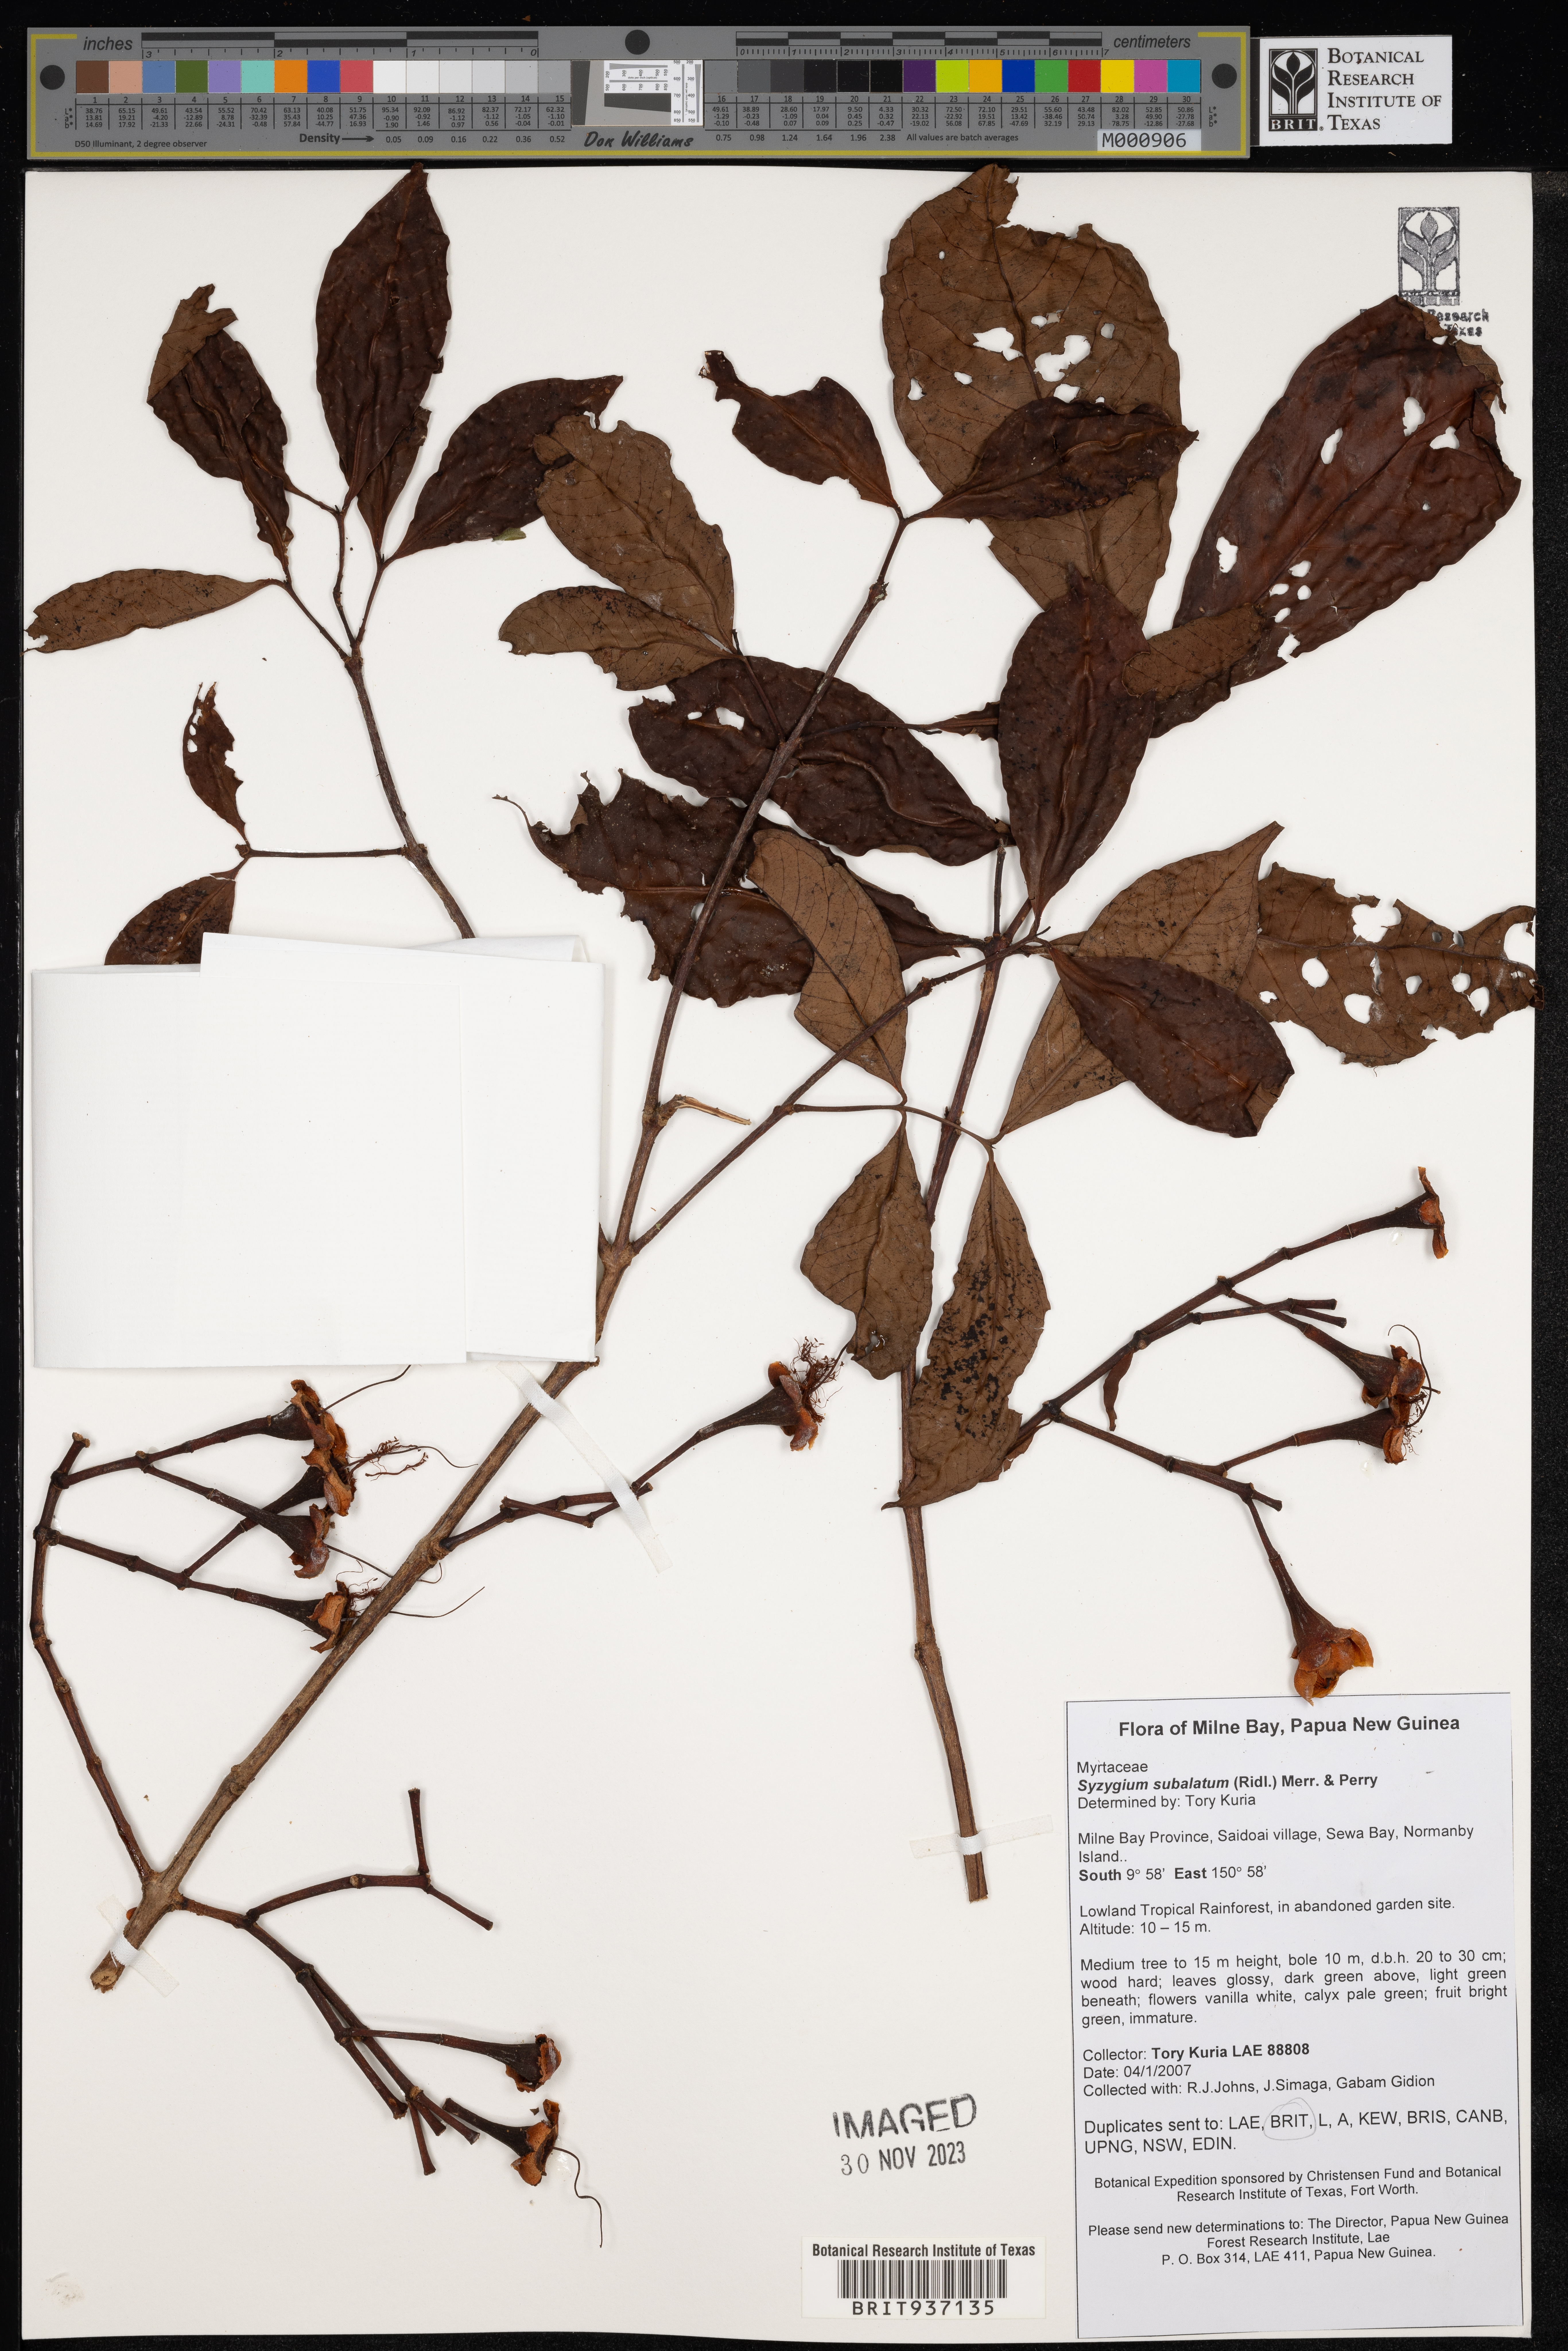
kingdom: Plantae
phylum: Tracheophyta
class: Magnoliopsida
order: Myrtales
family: Myrtaceae
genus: Syzygium
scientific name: Syzygium
